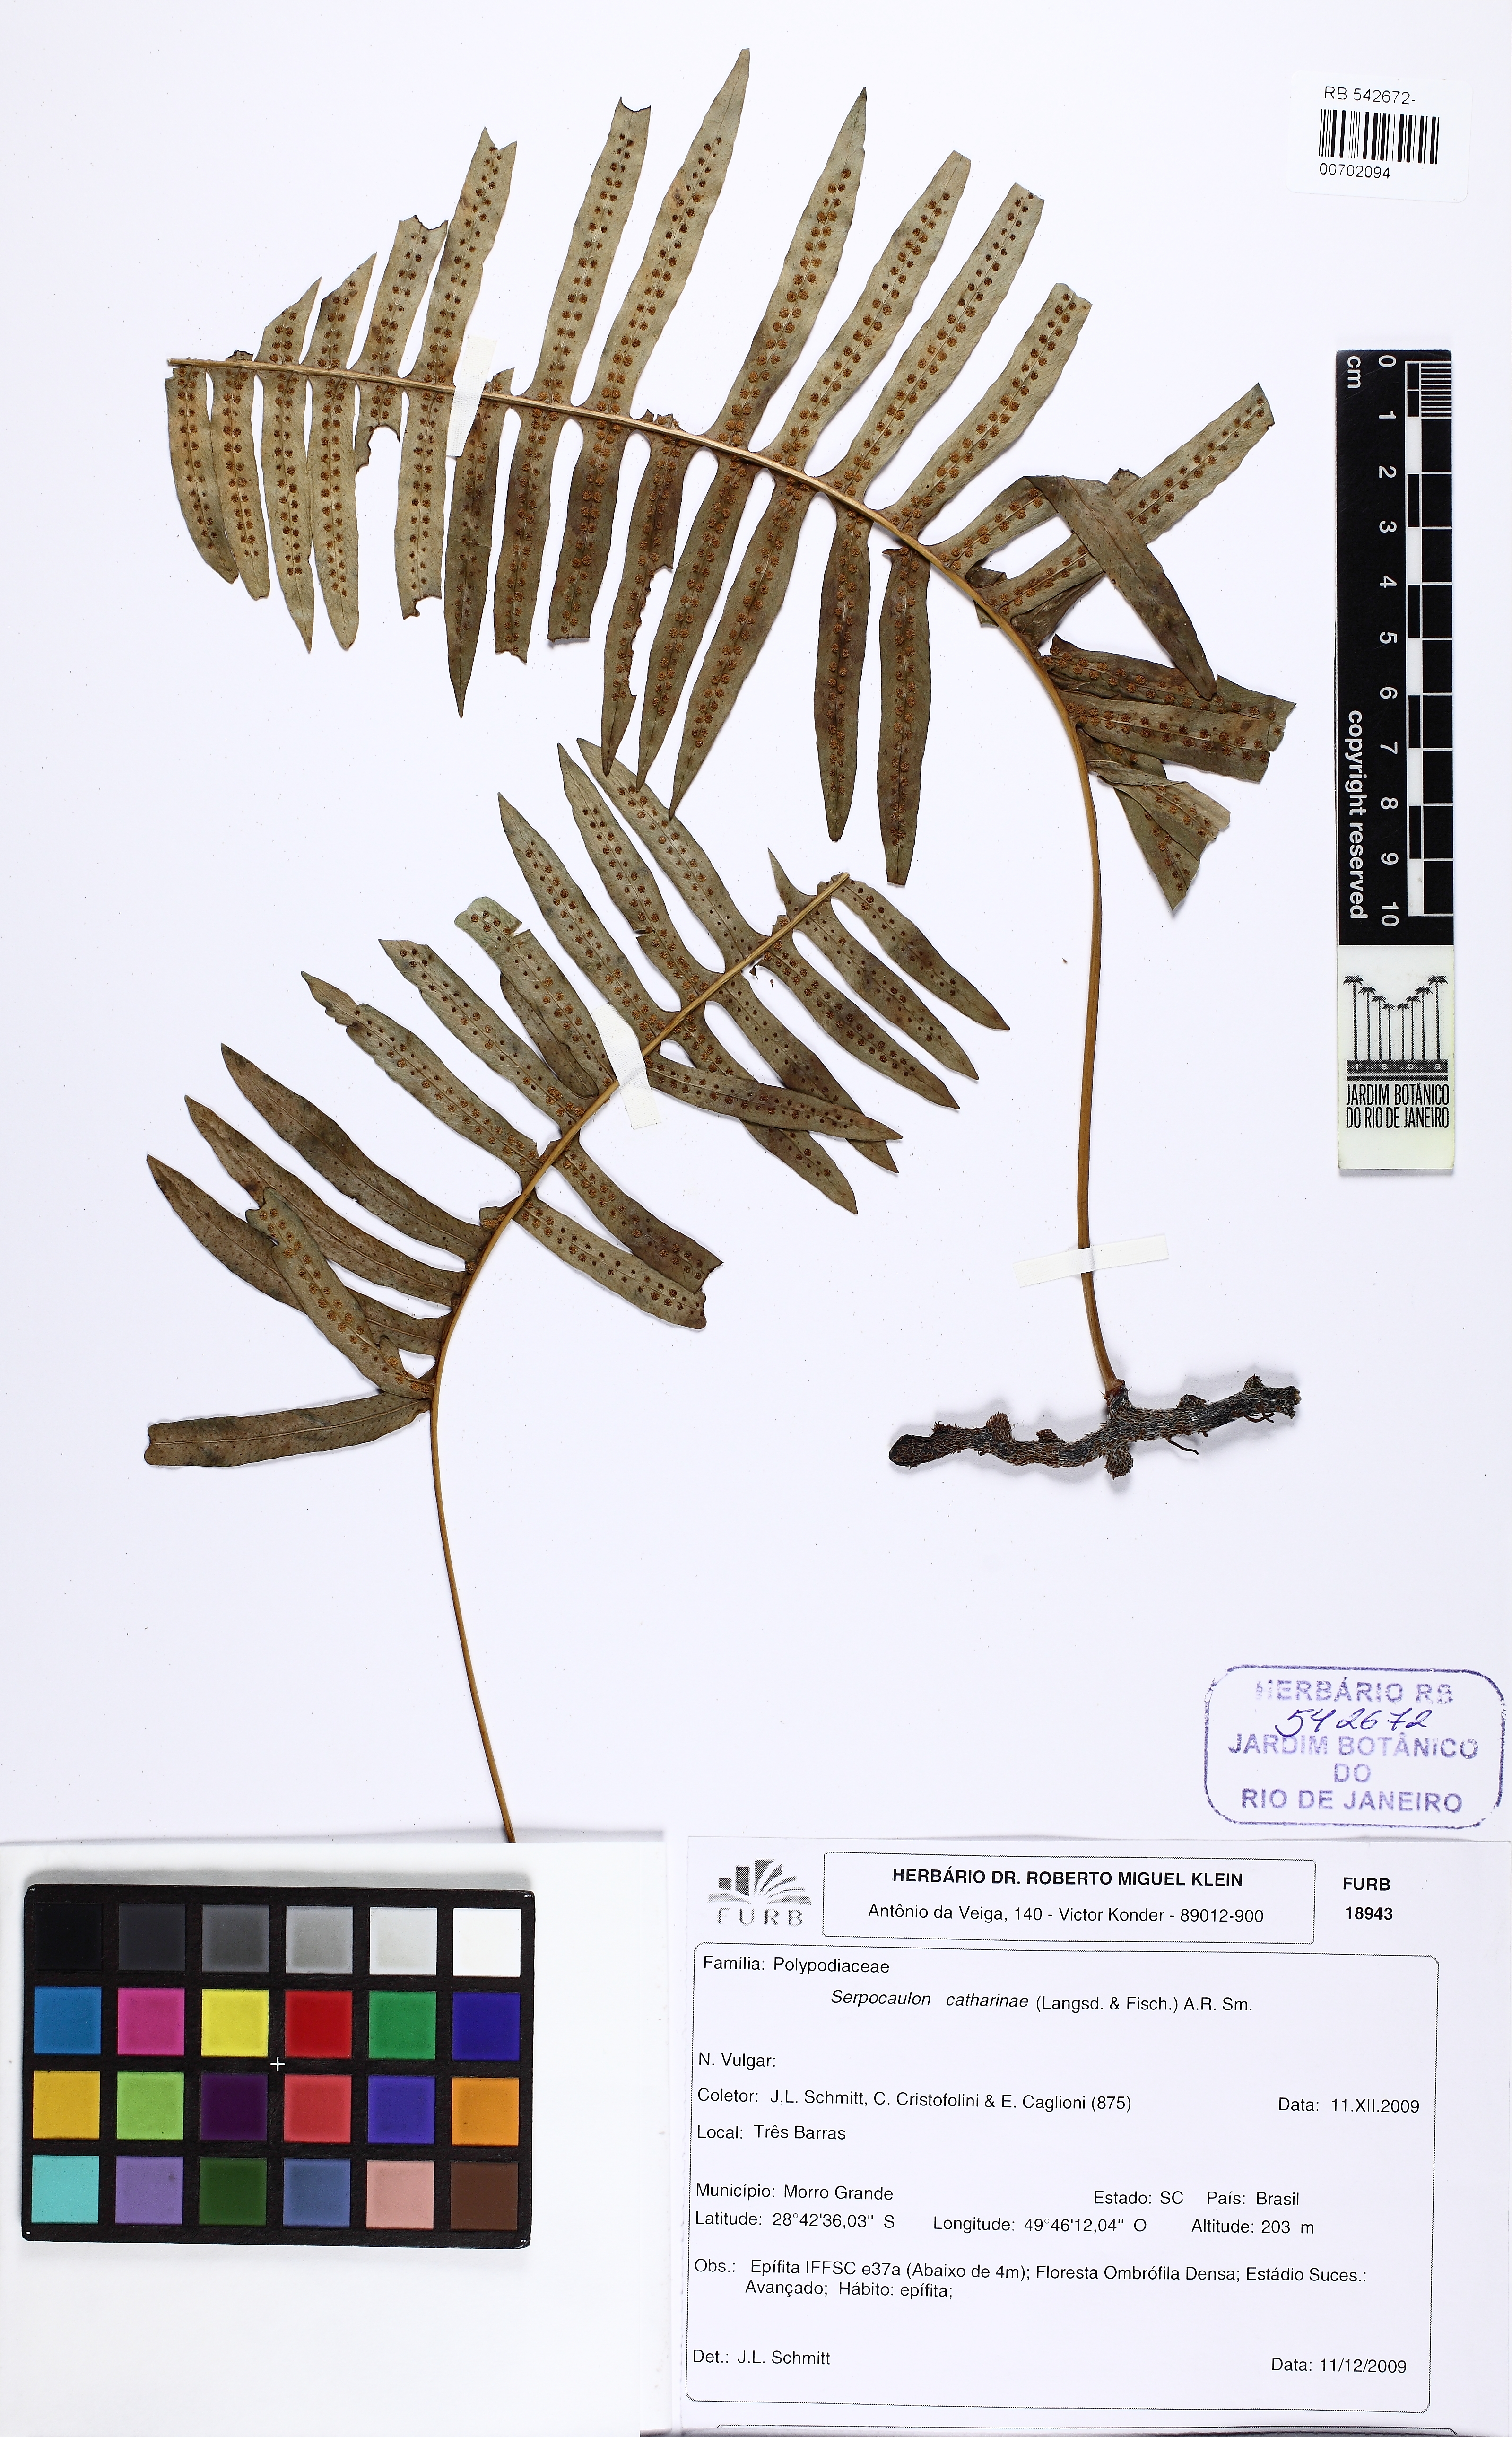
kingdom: Plantae
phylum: Tracheophyta
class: Polypodiopsida
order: Polypodiales
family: Polypodiaceae
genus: Serpocaulon
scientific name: Serpocaulon catharinae
